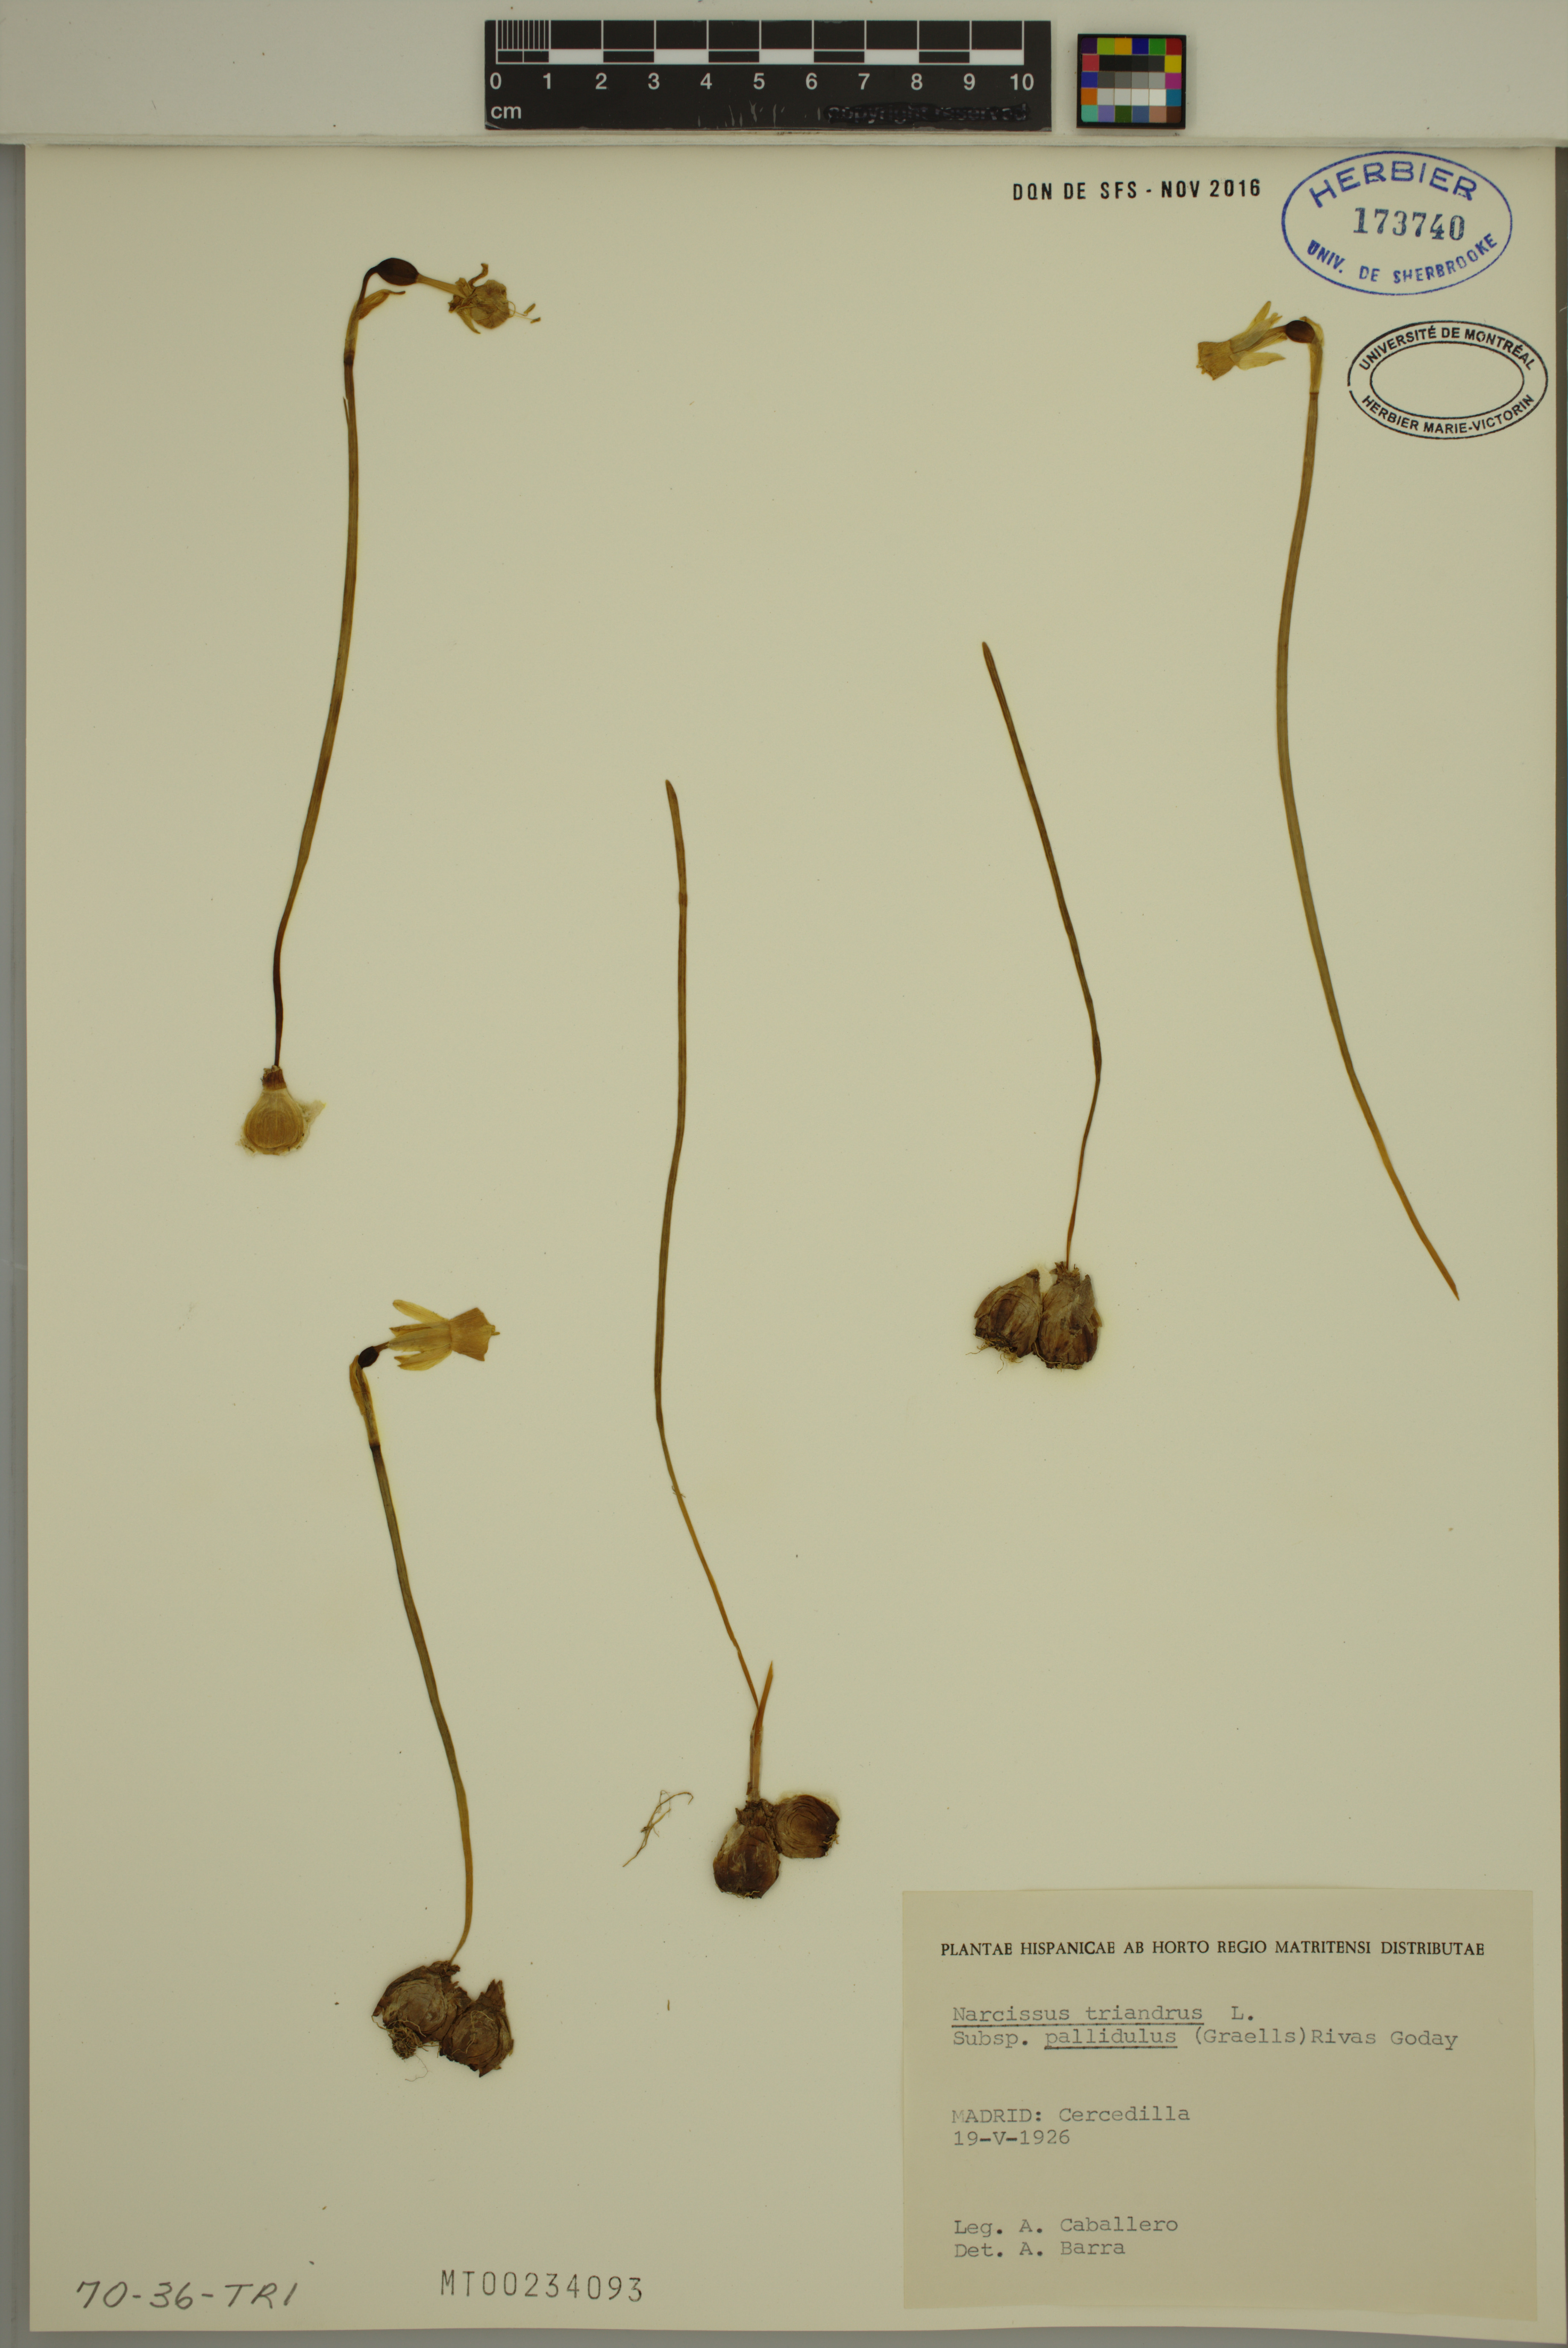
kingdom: Plantae
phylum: Tracheophyta
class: Liliopsida
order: Asparagales
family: Amaryllidaceae
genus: Narcissus
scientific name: Narcissus triandrus
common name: Angel's-tears
